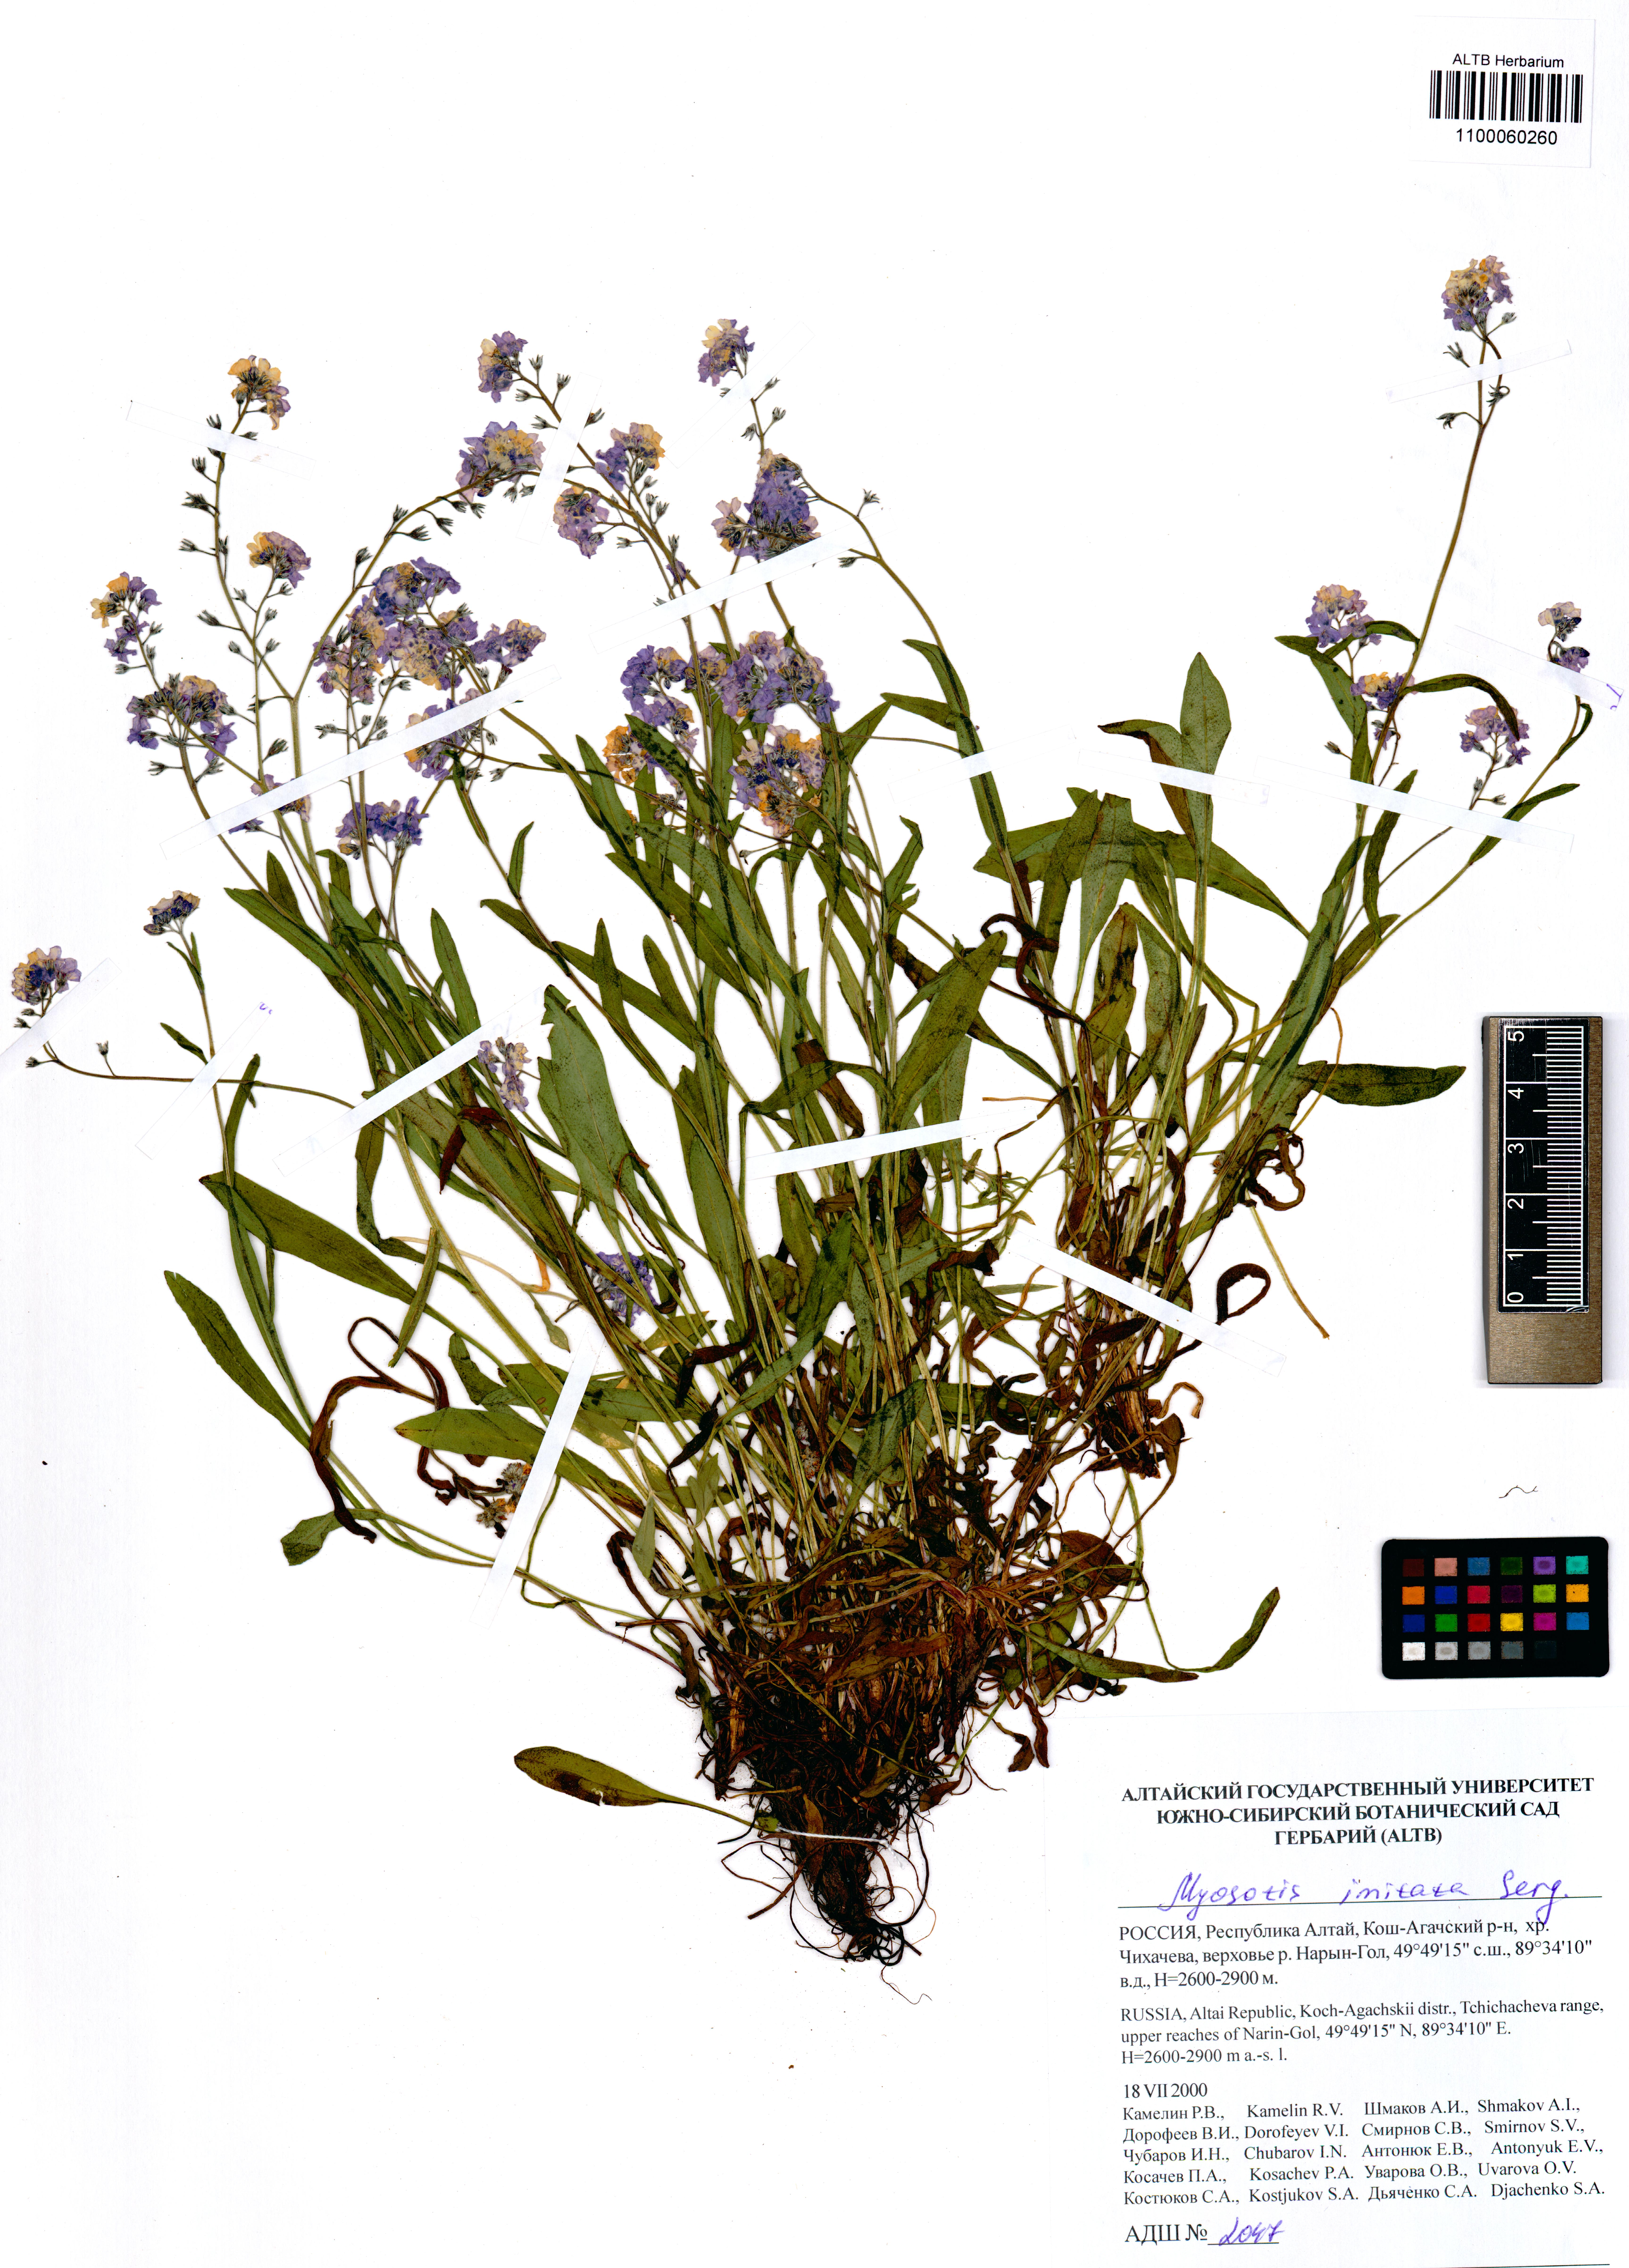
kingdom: Plantae
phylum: Tracheophyta
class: Magnoliopsida
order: Boraginales
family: Boraginaceae
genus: Myosotis
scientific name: Myosotis imitata
